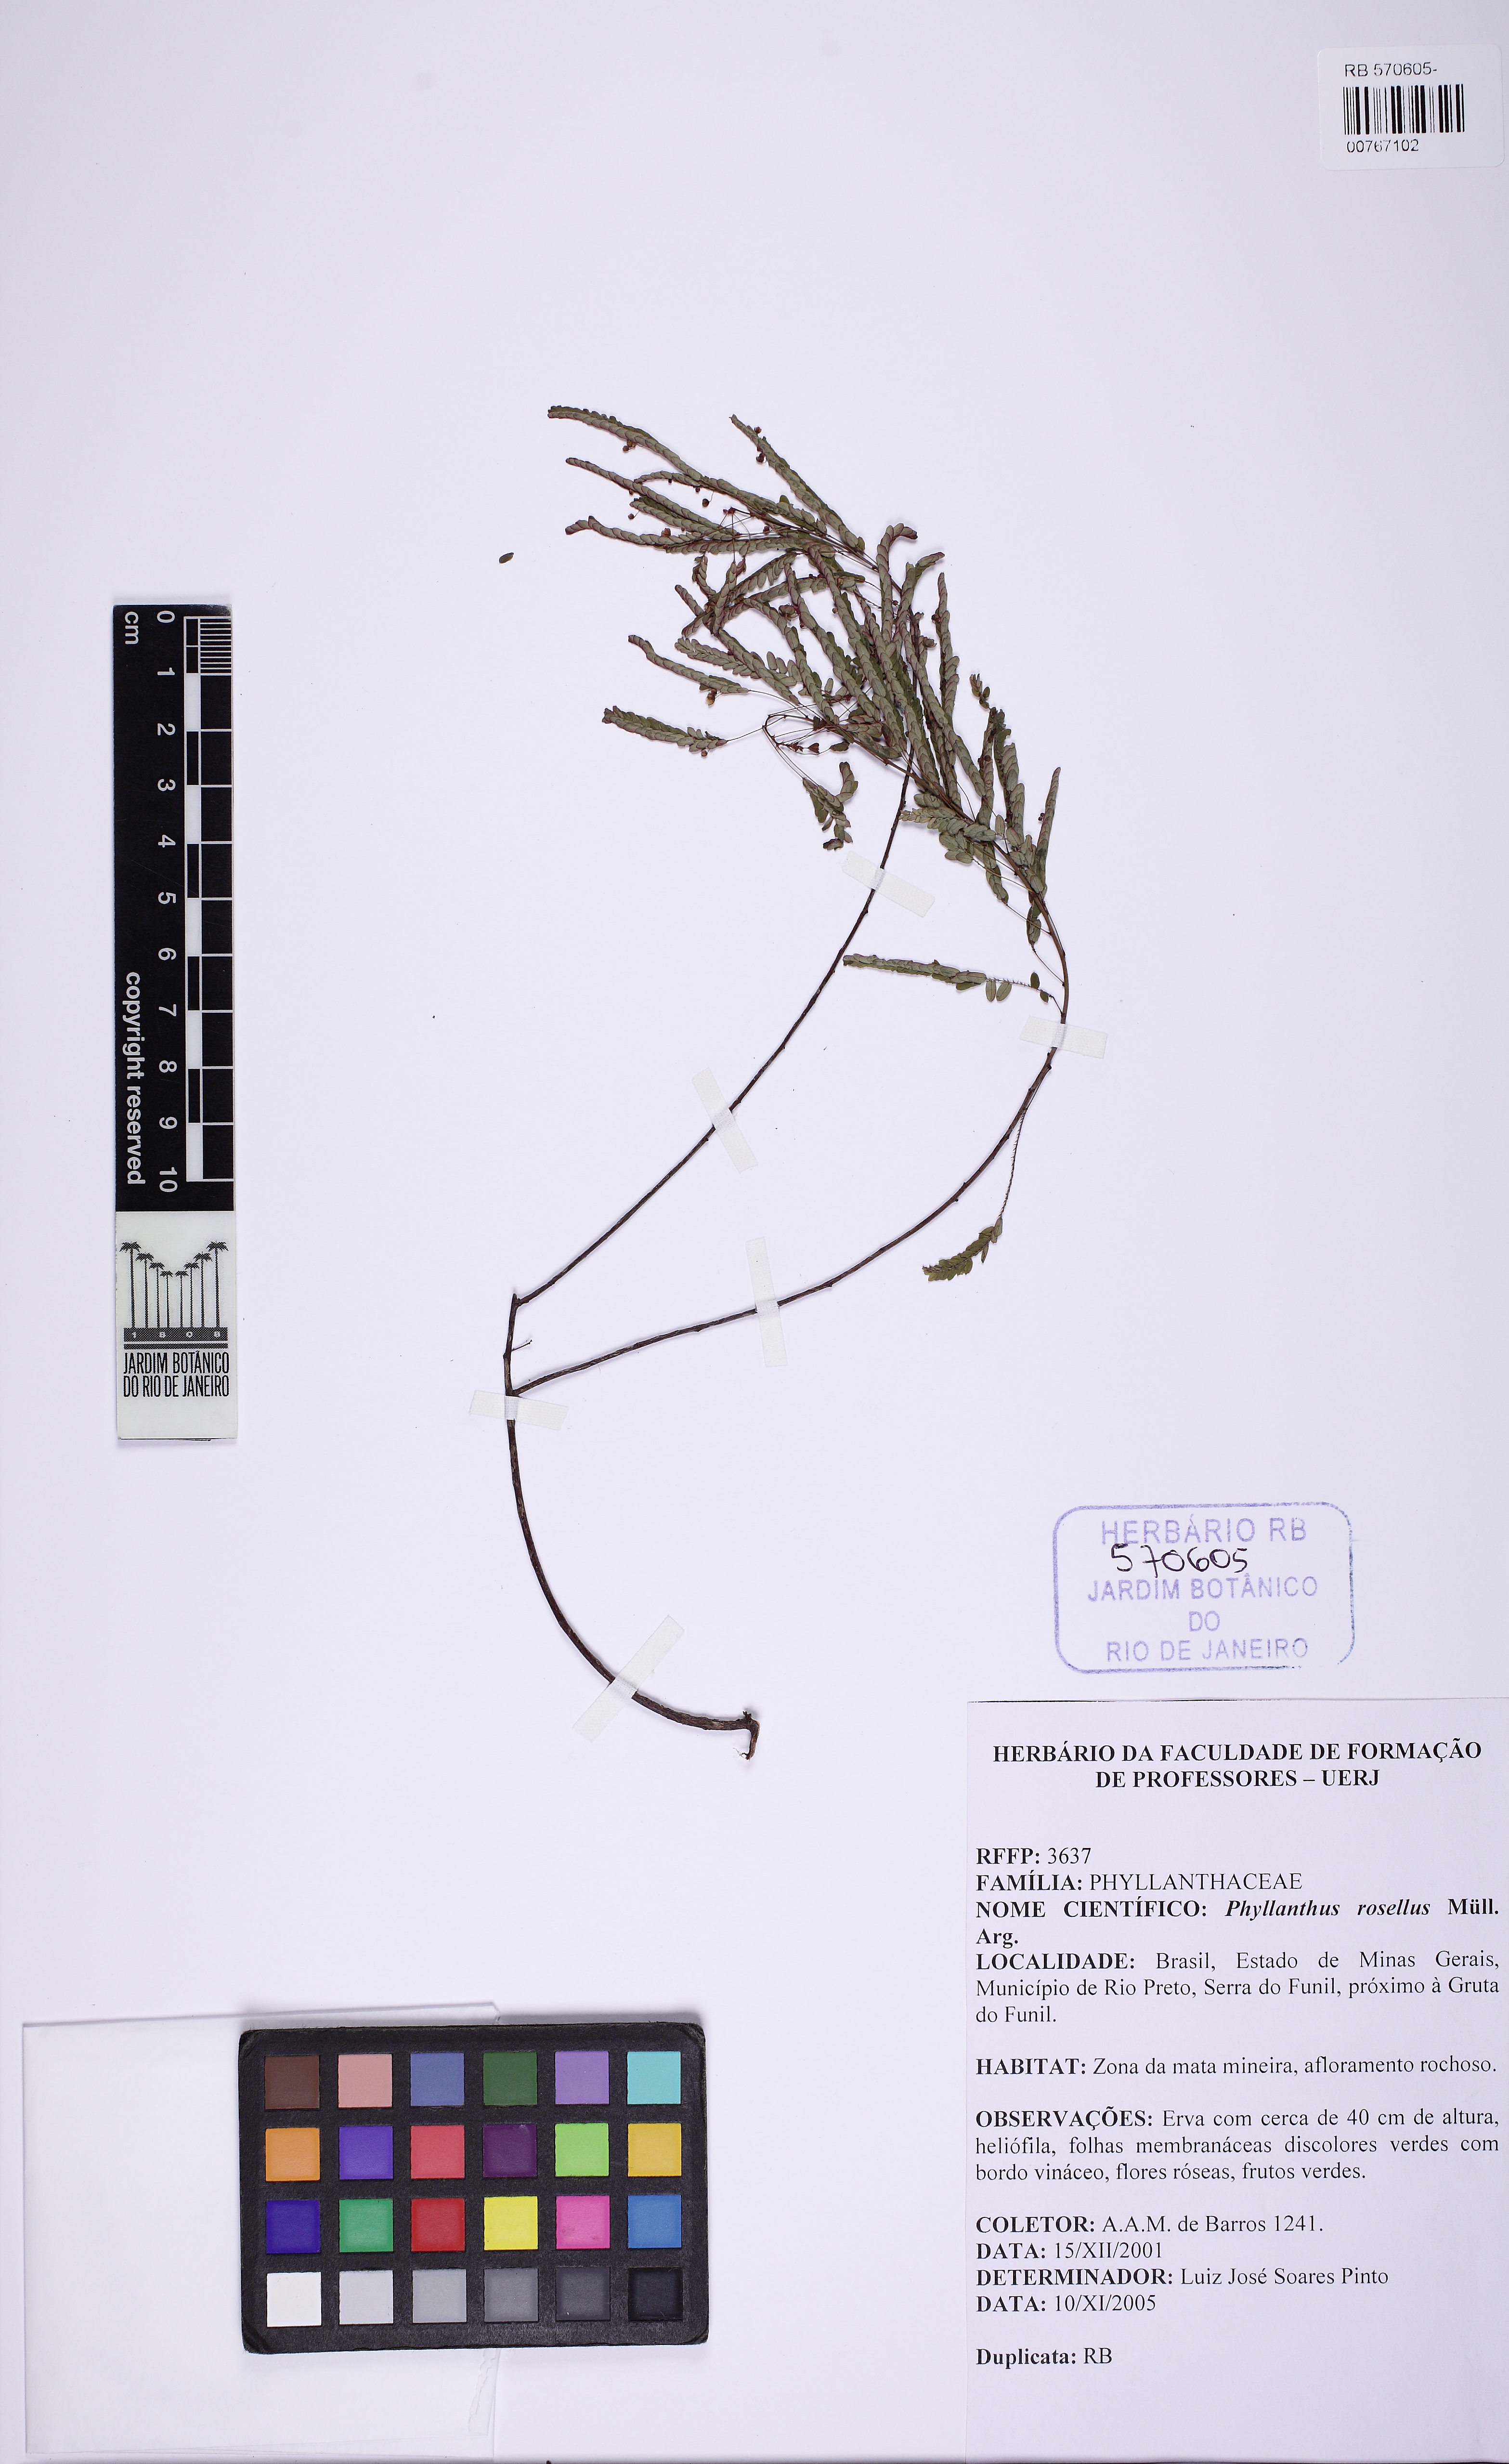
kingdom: Plantae
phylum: Tracheophyta
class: Magnoliopsida
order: Malpighiales
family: Phyllanthaceae
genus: Phyllanthus
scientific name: Phyllanthus niruri
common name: Niruri
